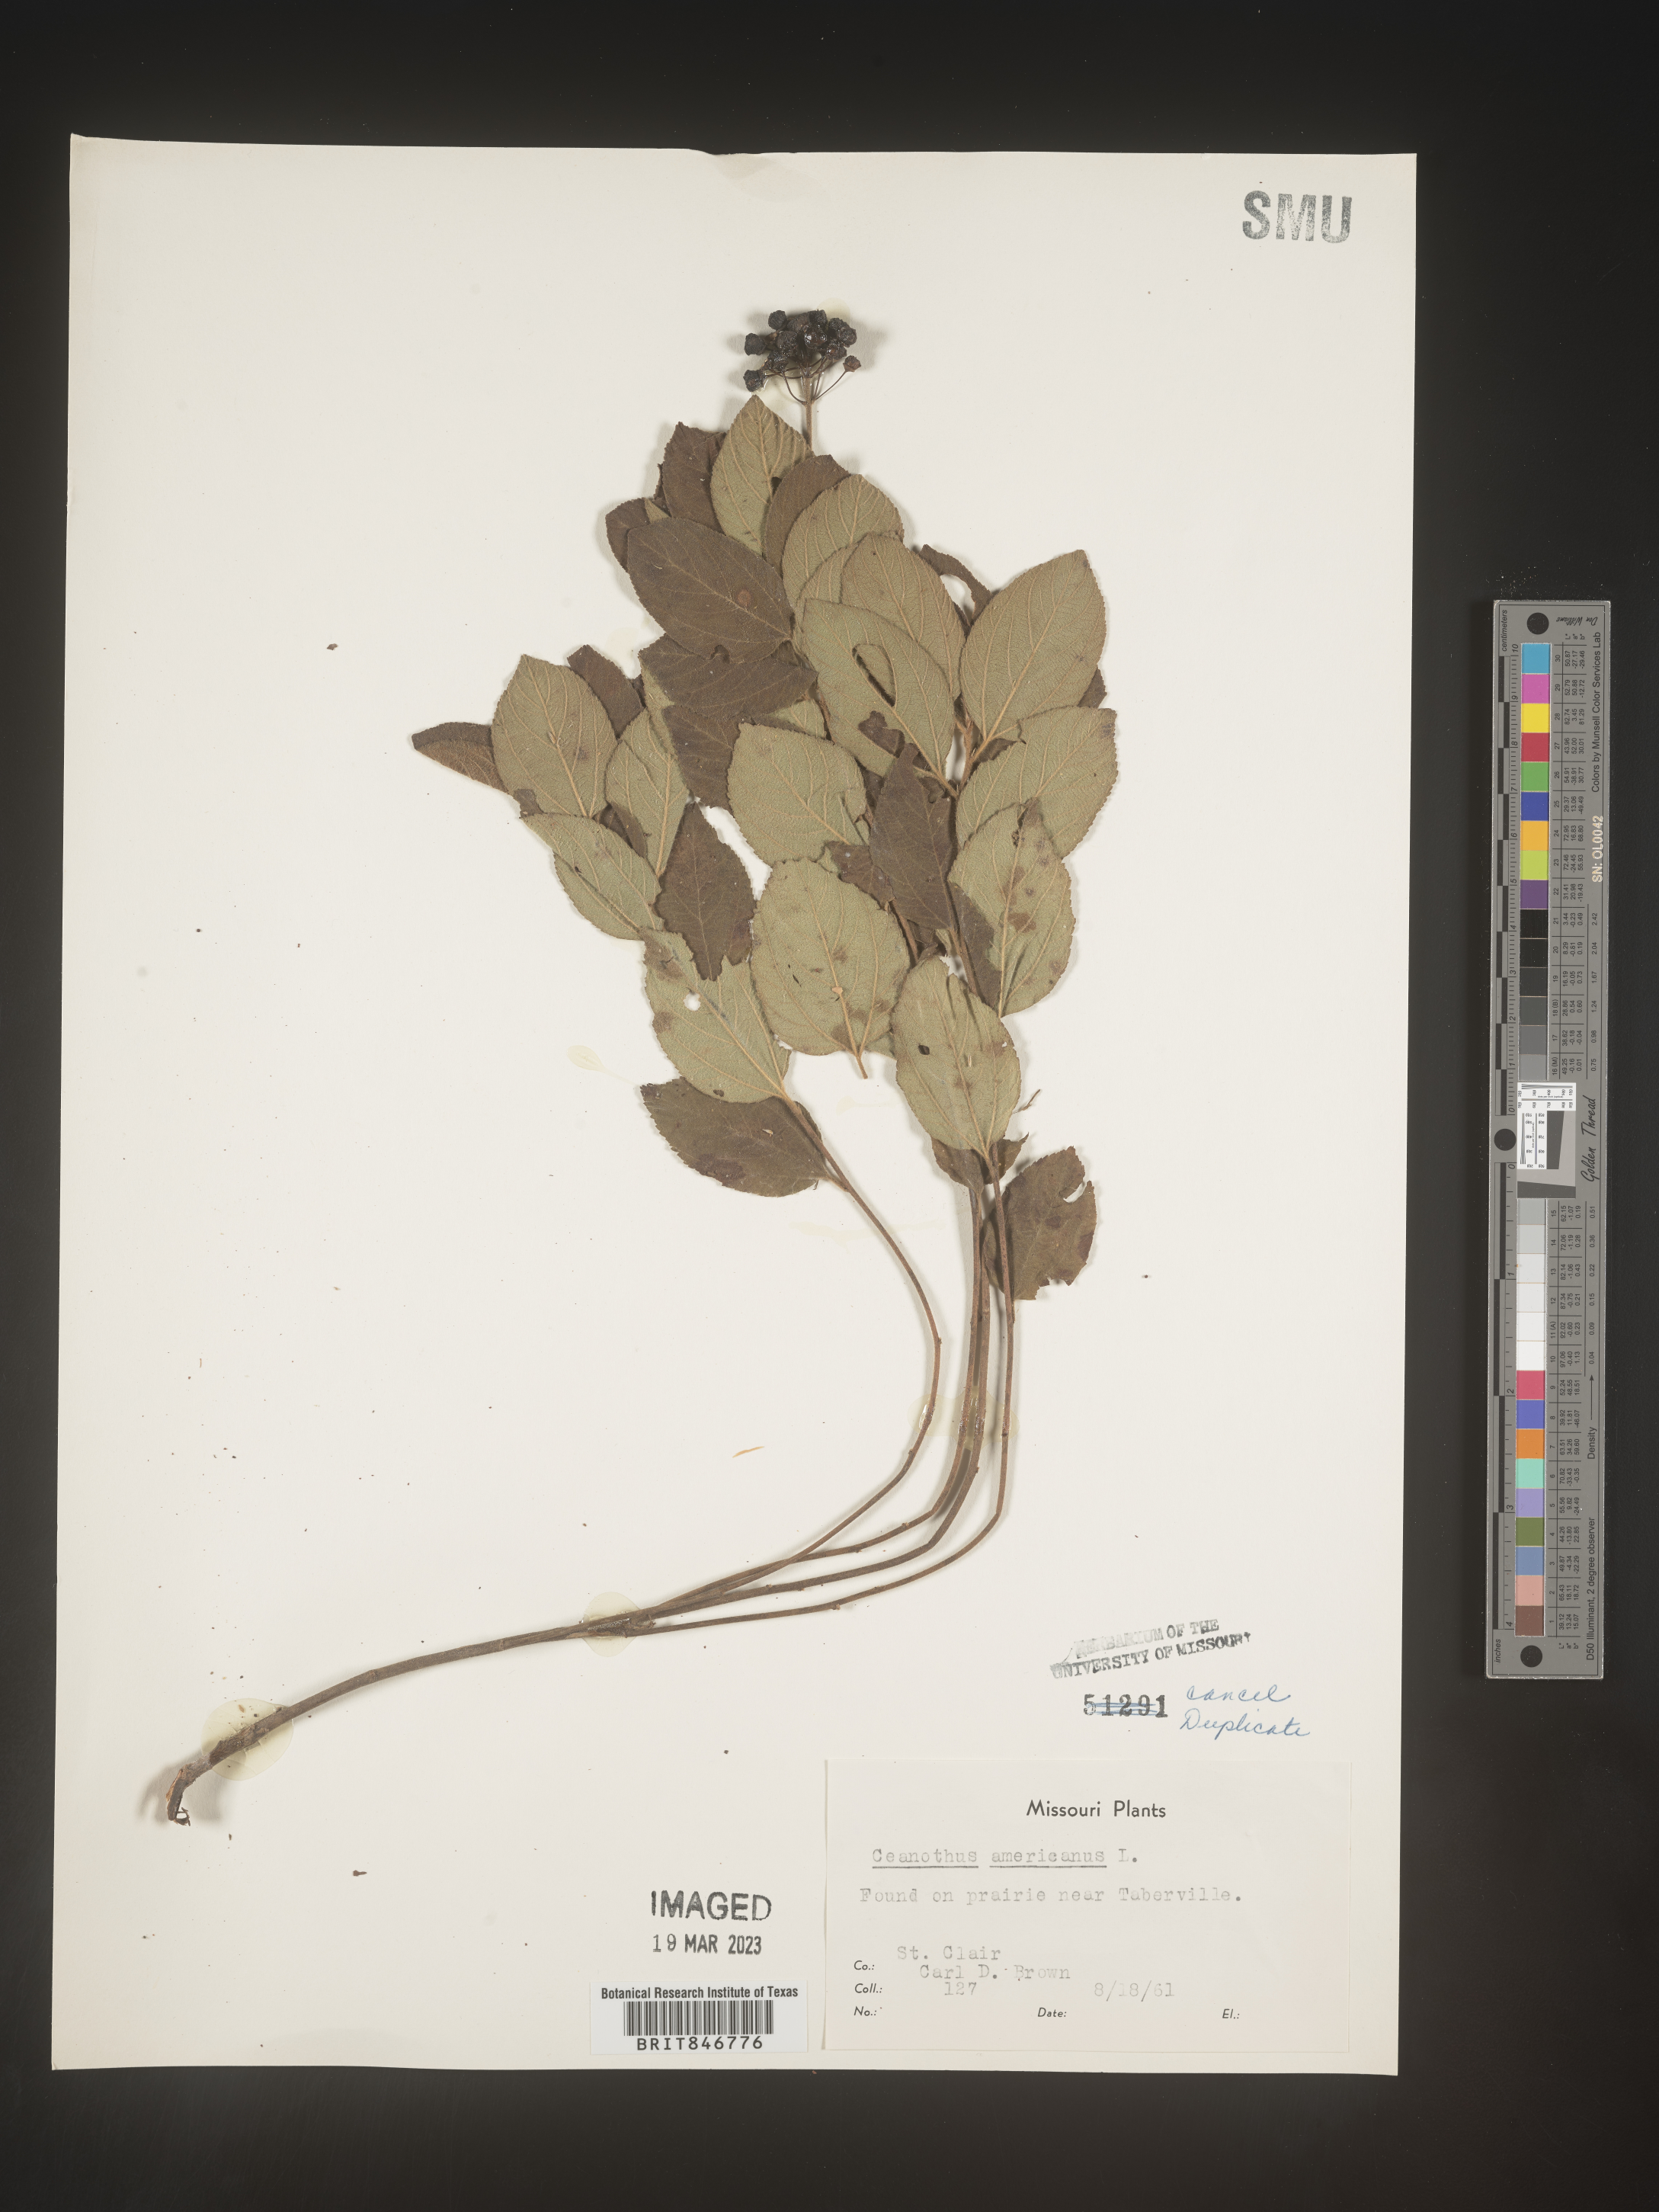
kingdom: Plantae
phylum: Tracheophyta
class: Magnoliopsida
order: Rosales
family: Rhamnaceae
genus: Ceanothus
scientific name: Ceanothus americanus
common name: Redroot
